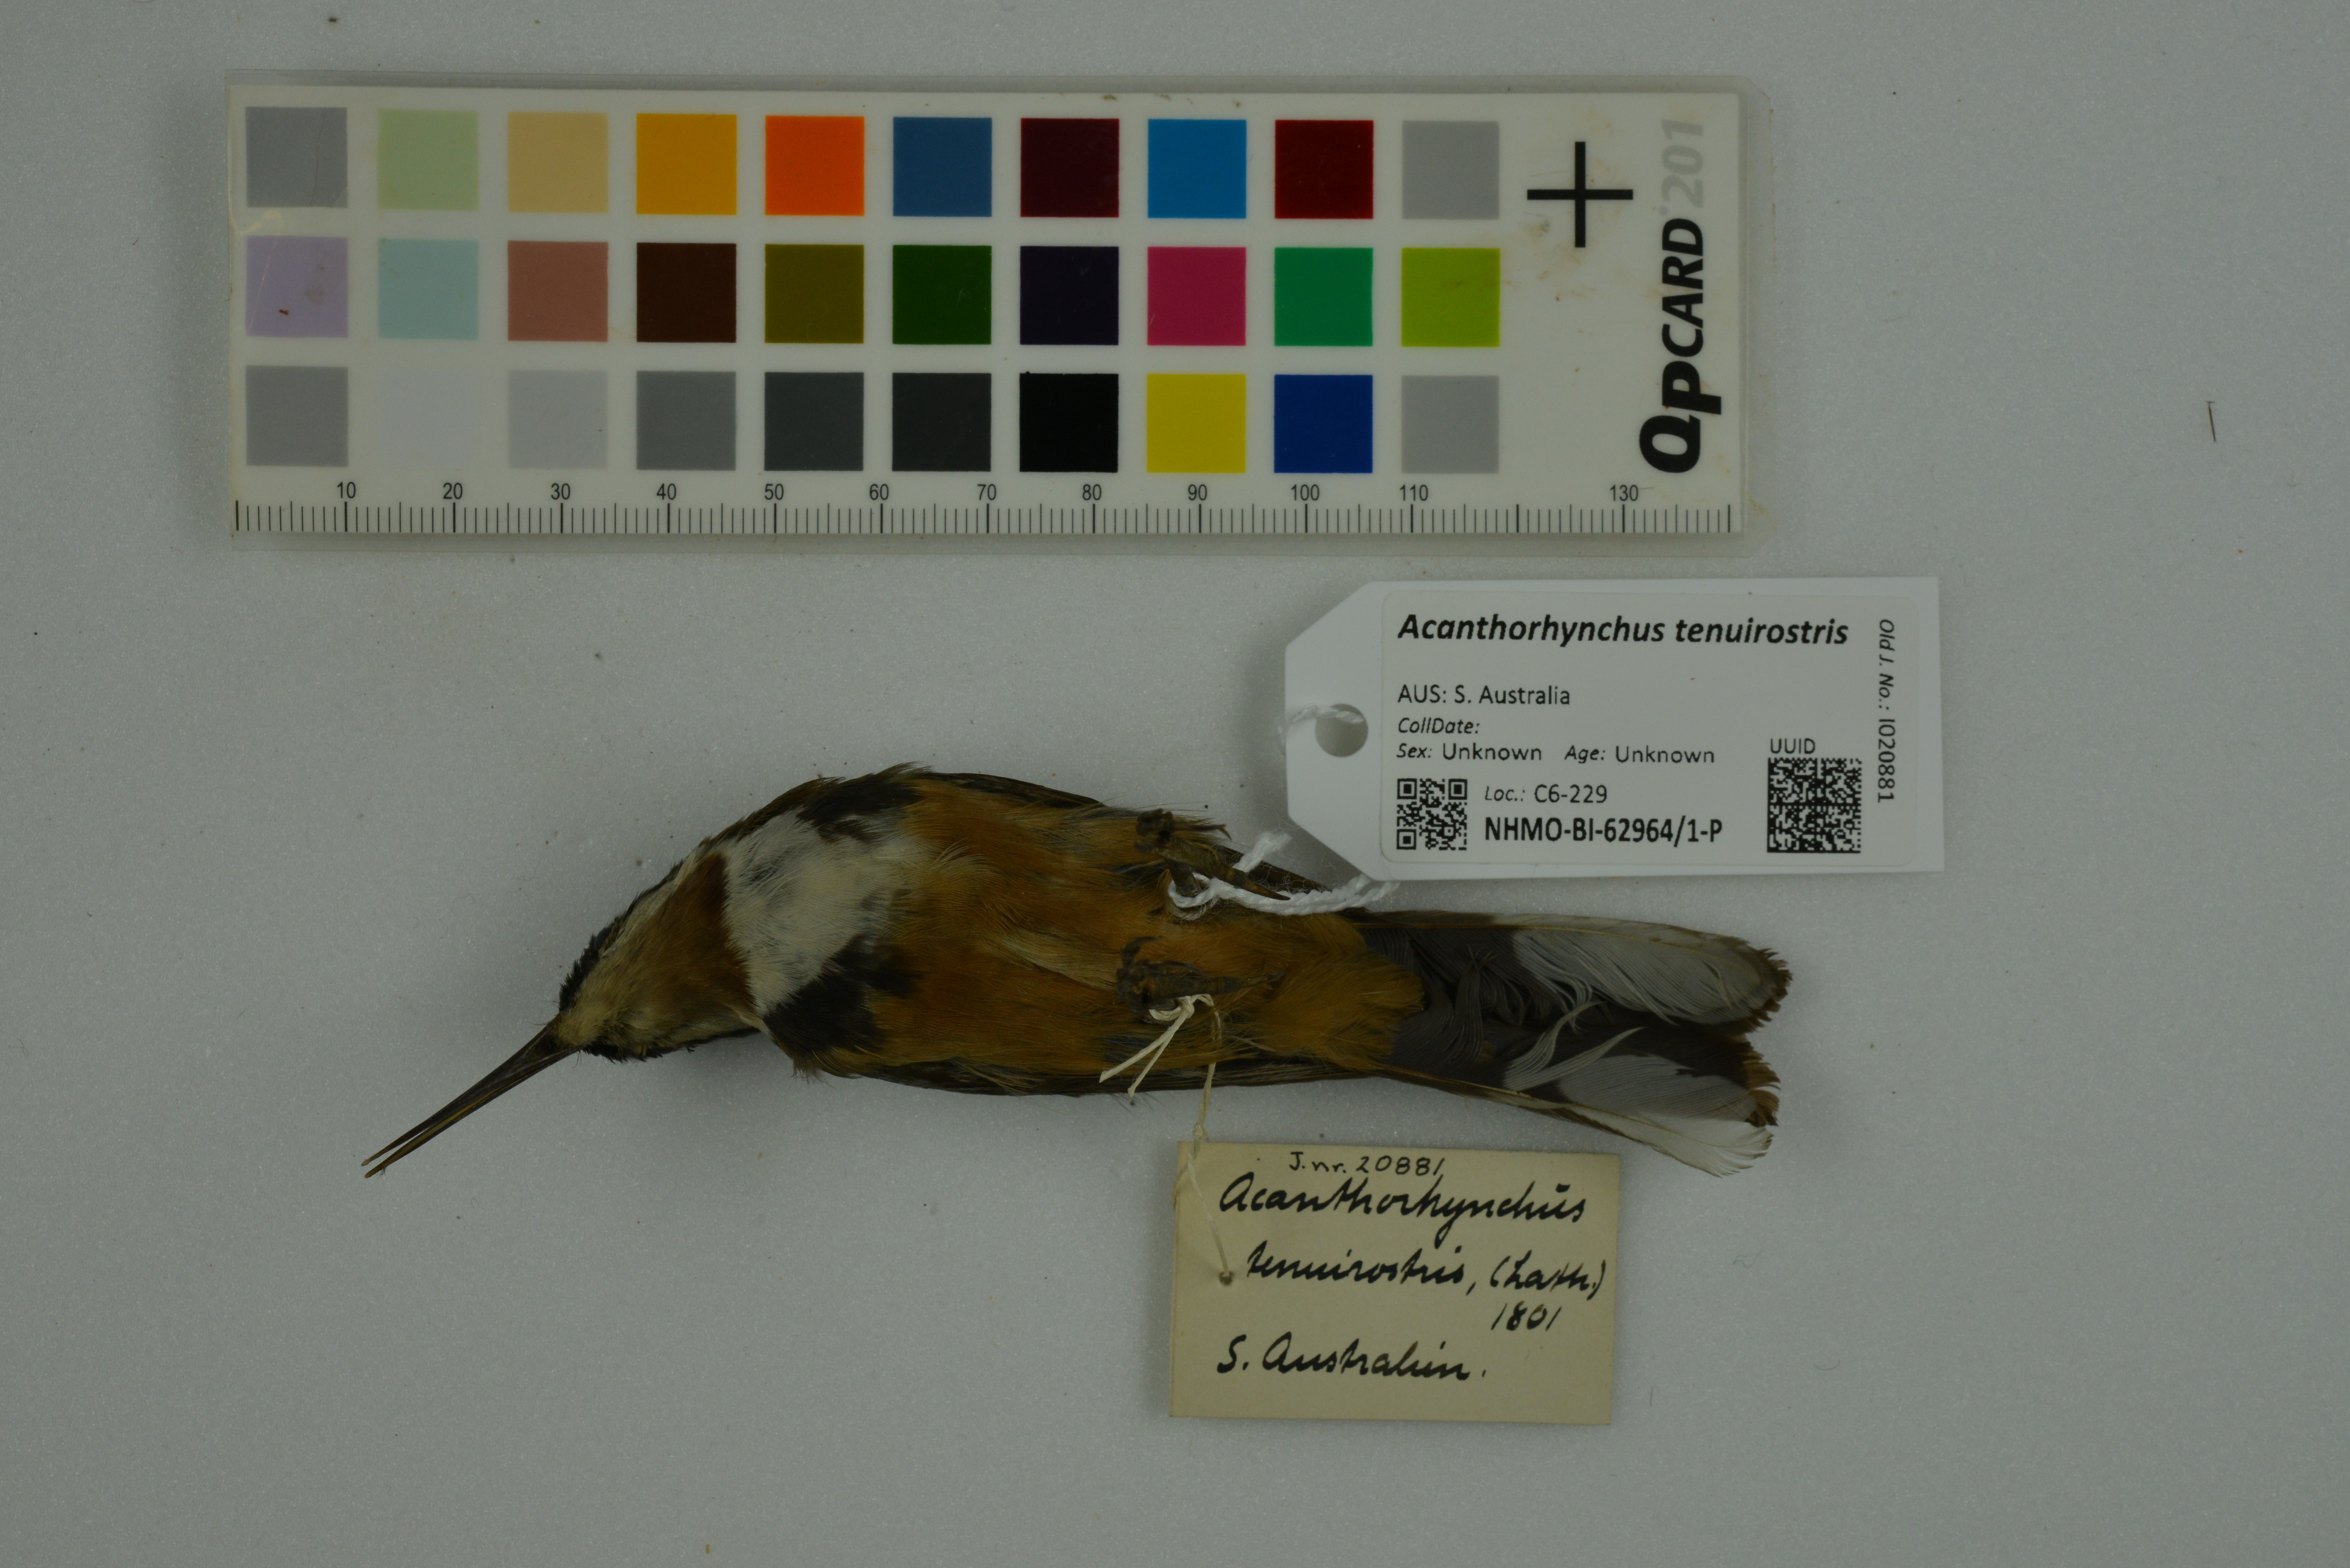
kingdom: Animalia
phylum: Chordata
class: Aves
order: Passeriformes
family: Meliphagidae
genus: Acanthorhynchus
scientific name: Acanthorhynchus tenuirostris
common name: Eastern spinebill
